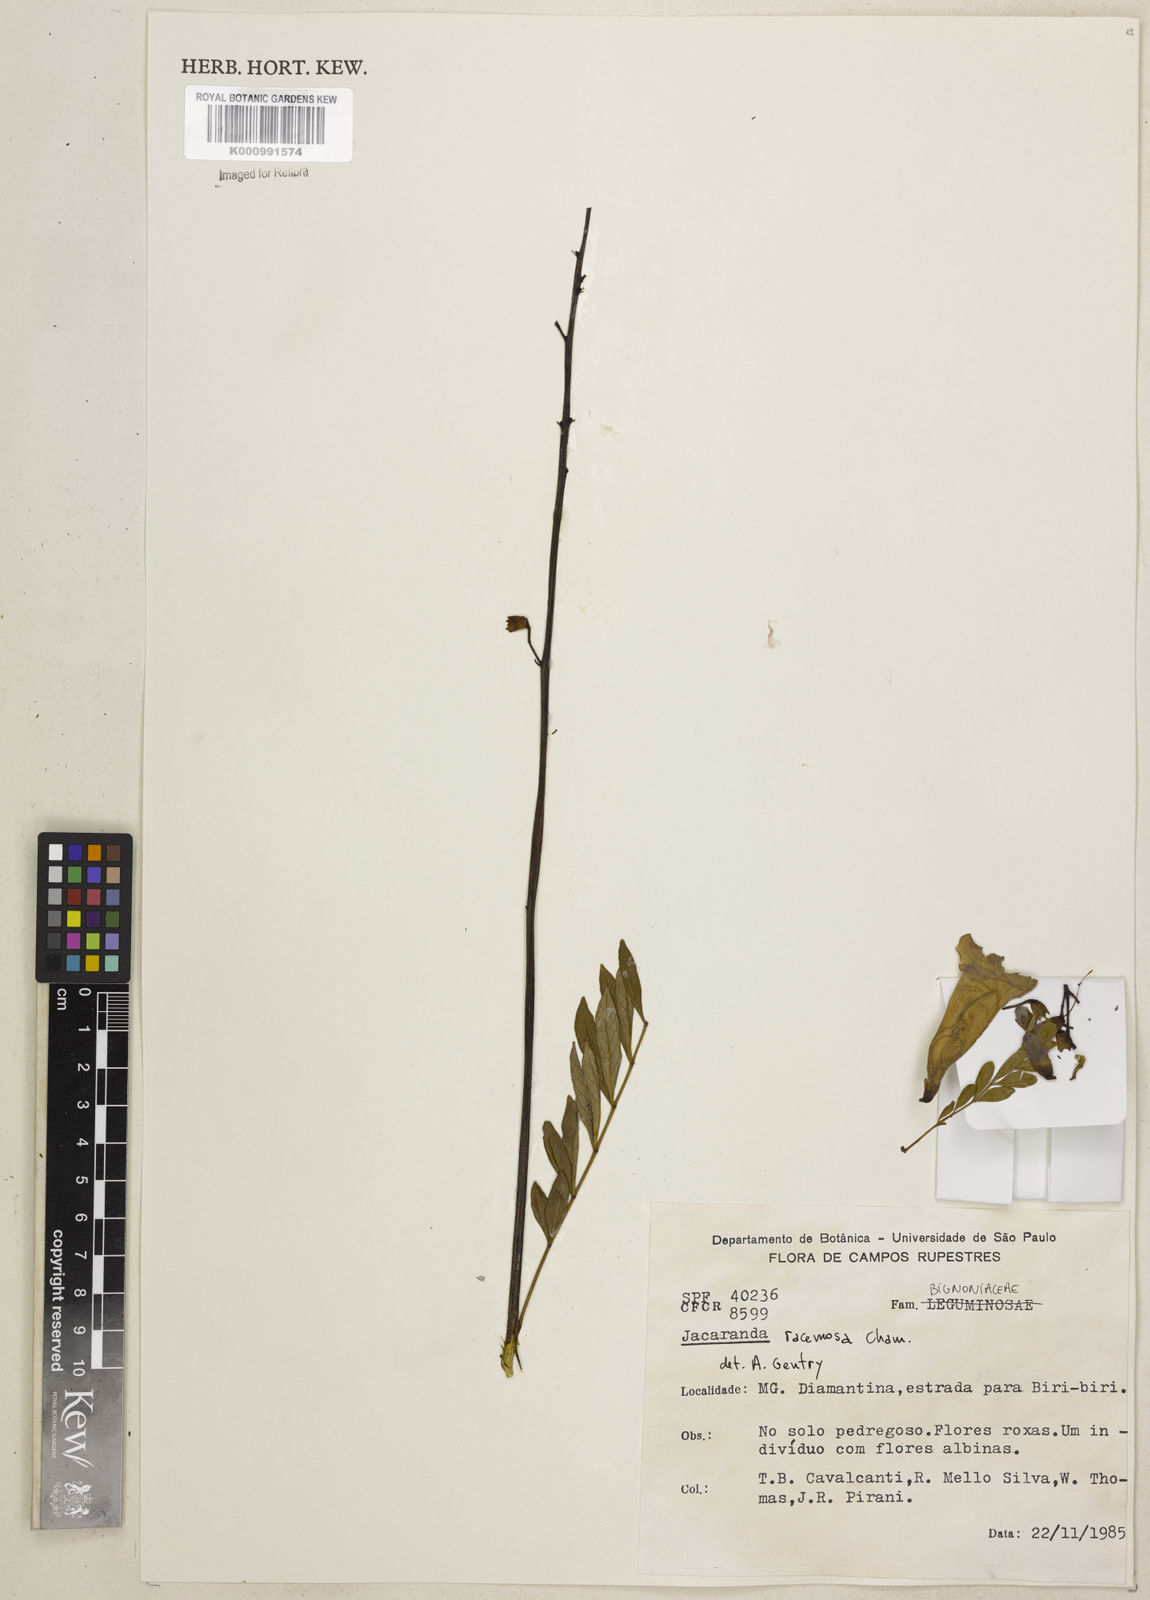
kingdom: Plantae
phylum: Tracheophyta
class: Magnoliopsida
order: Lamiales
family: Bignoniaceae
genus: Jacaranda
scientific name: Jacaranda racemosa
